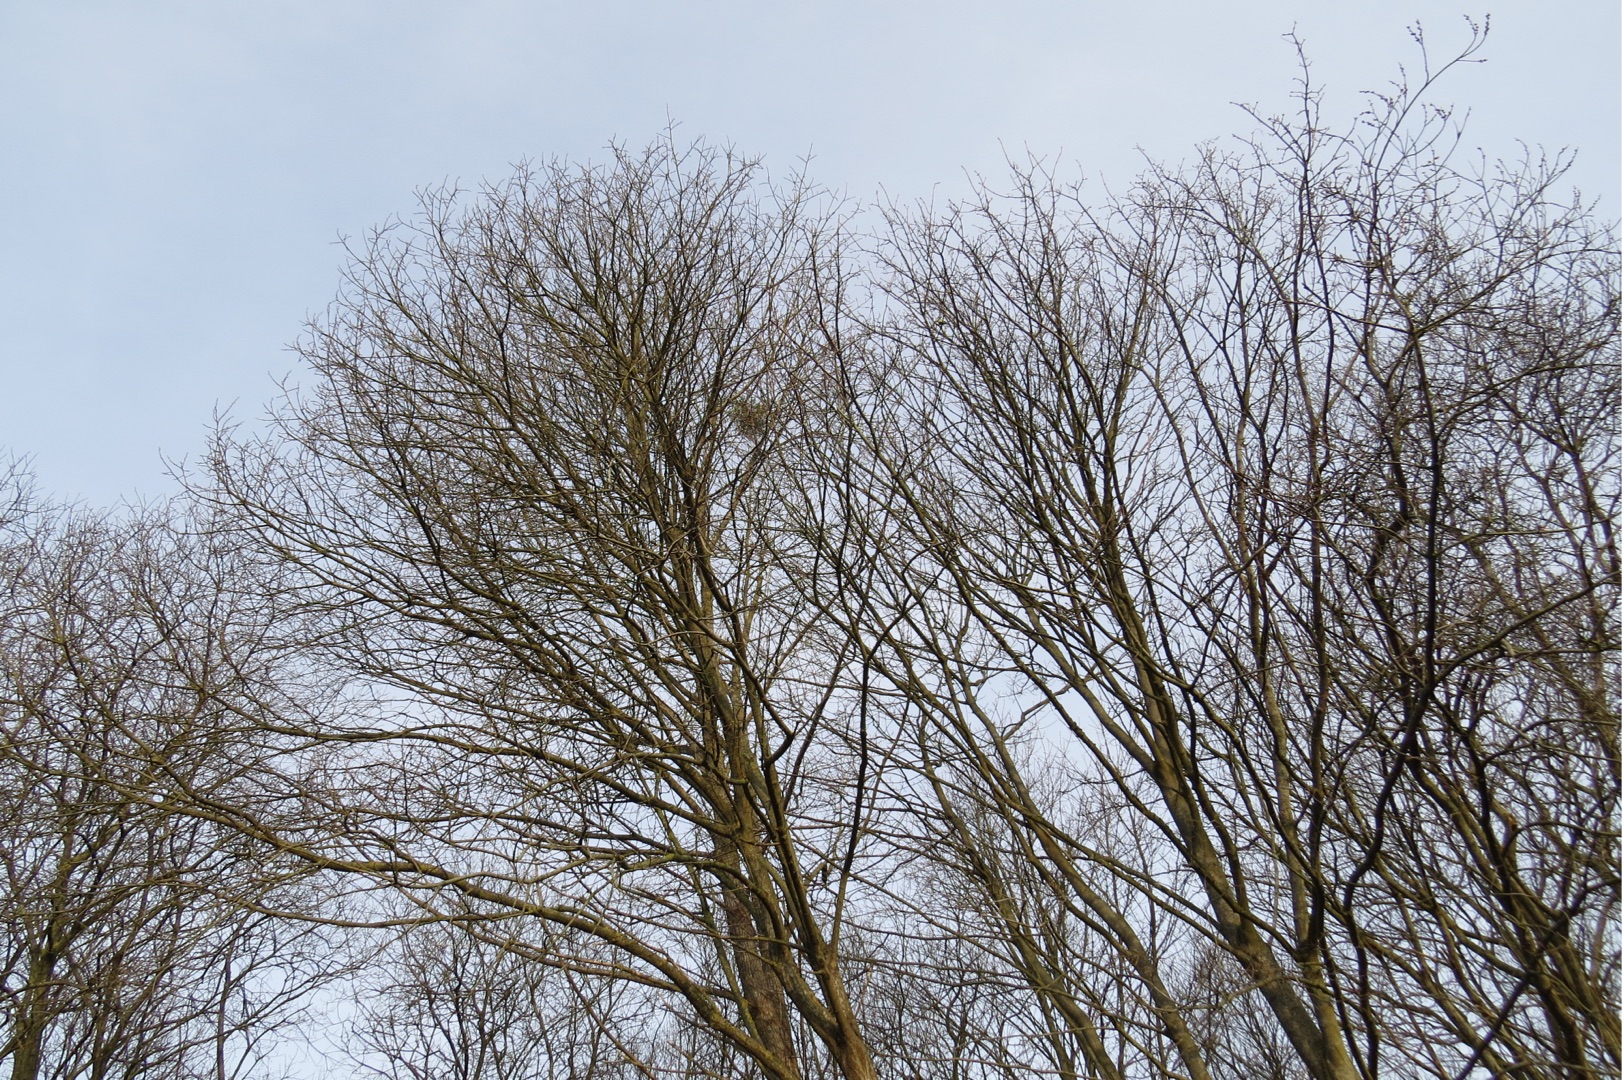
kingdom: Plantae
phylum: Tracheophyta
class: Magnoliopsida
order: Santalales
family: Viscaceae
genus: Viscum
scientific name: Viscum album
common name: Mistelten
